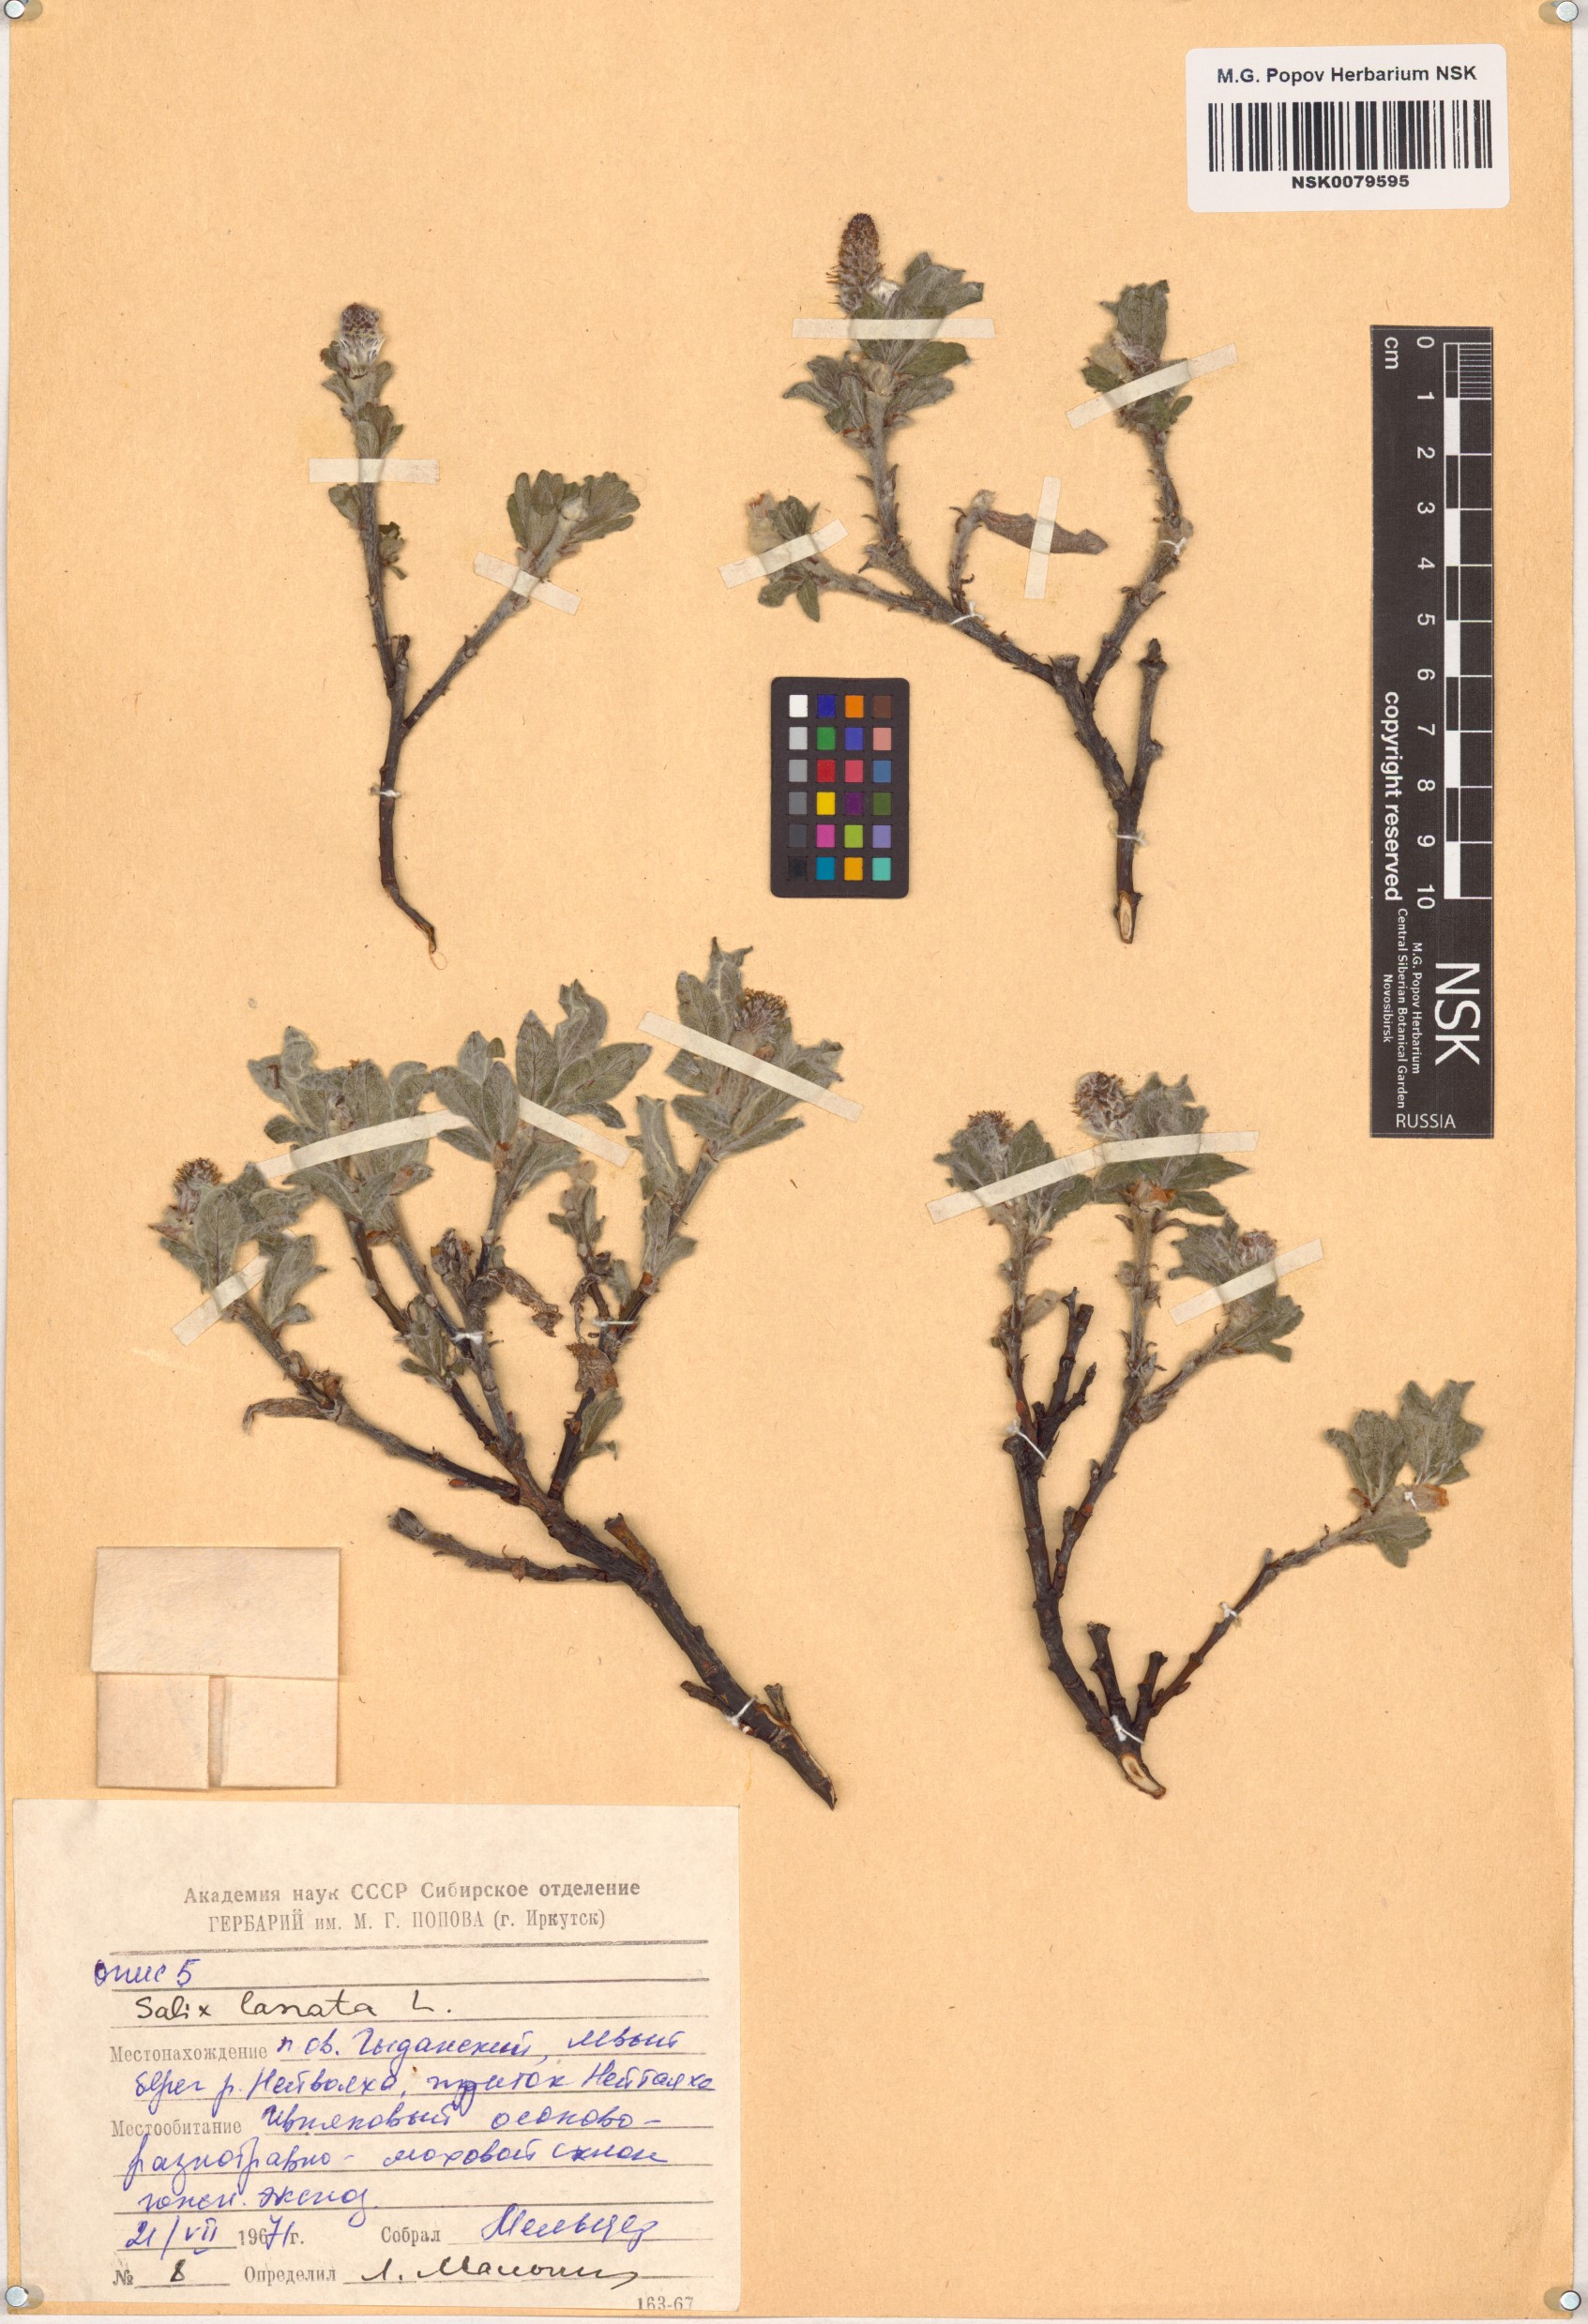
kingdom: Plantae
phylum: Tracheophyta
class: Magnoliopsida
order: Malpighiales
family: Salicaceae
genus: Salix
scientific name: Salix lanata
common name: Woolly willow
